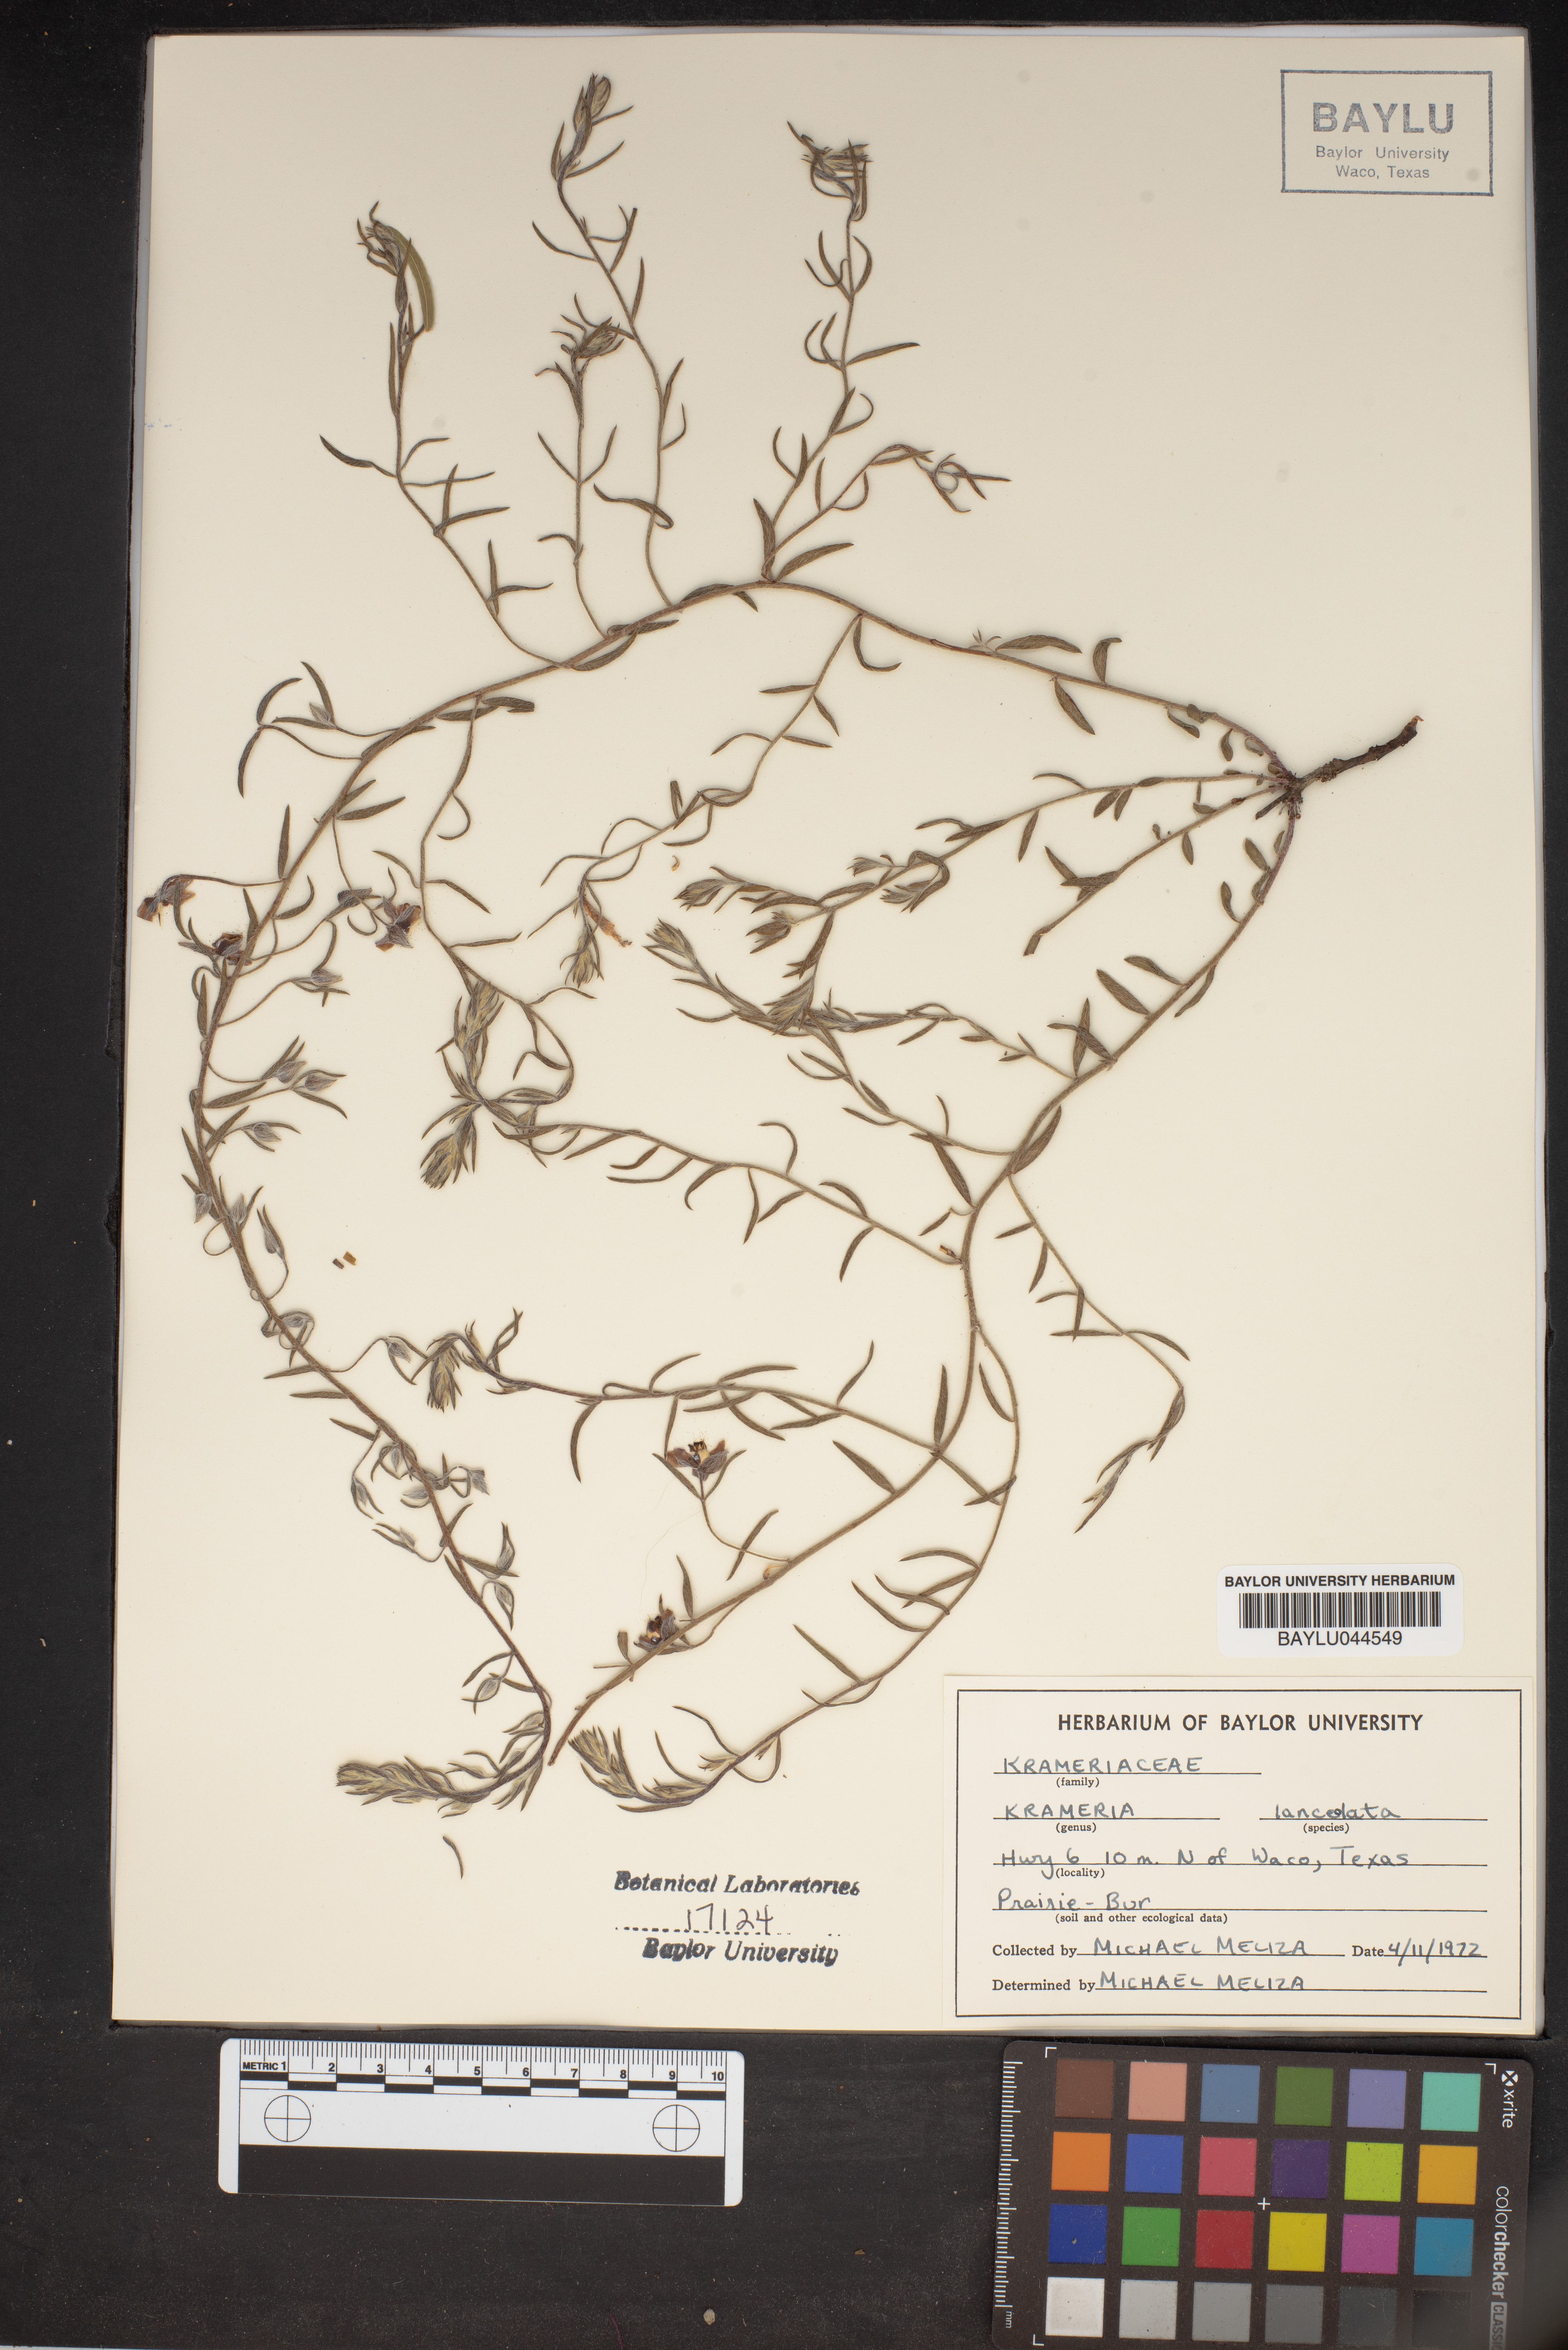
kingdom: Plantae
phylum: Tracheophyta
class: Magnoliopsida
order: Zygophyllales
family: Krameriaceae
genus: Krameria
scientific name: Krameria lanceolata
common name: Ratany
